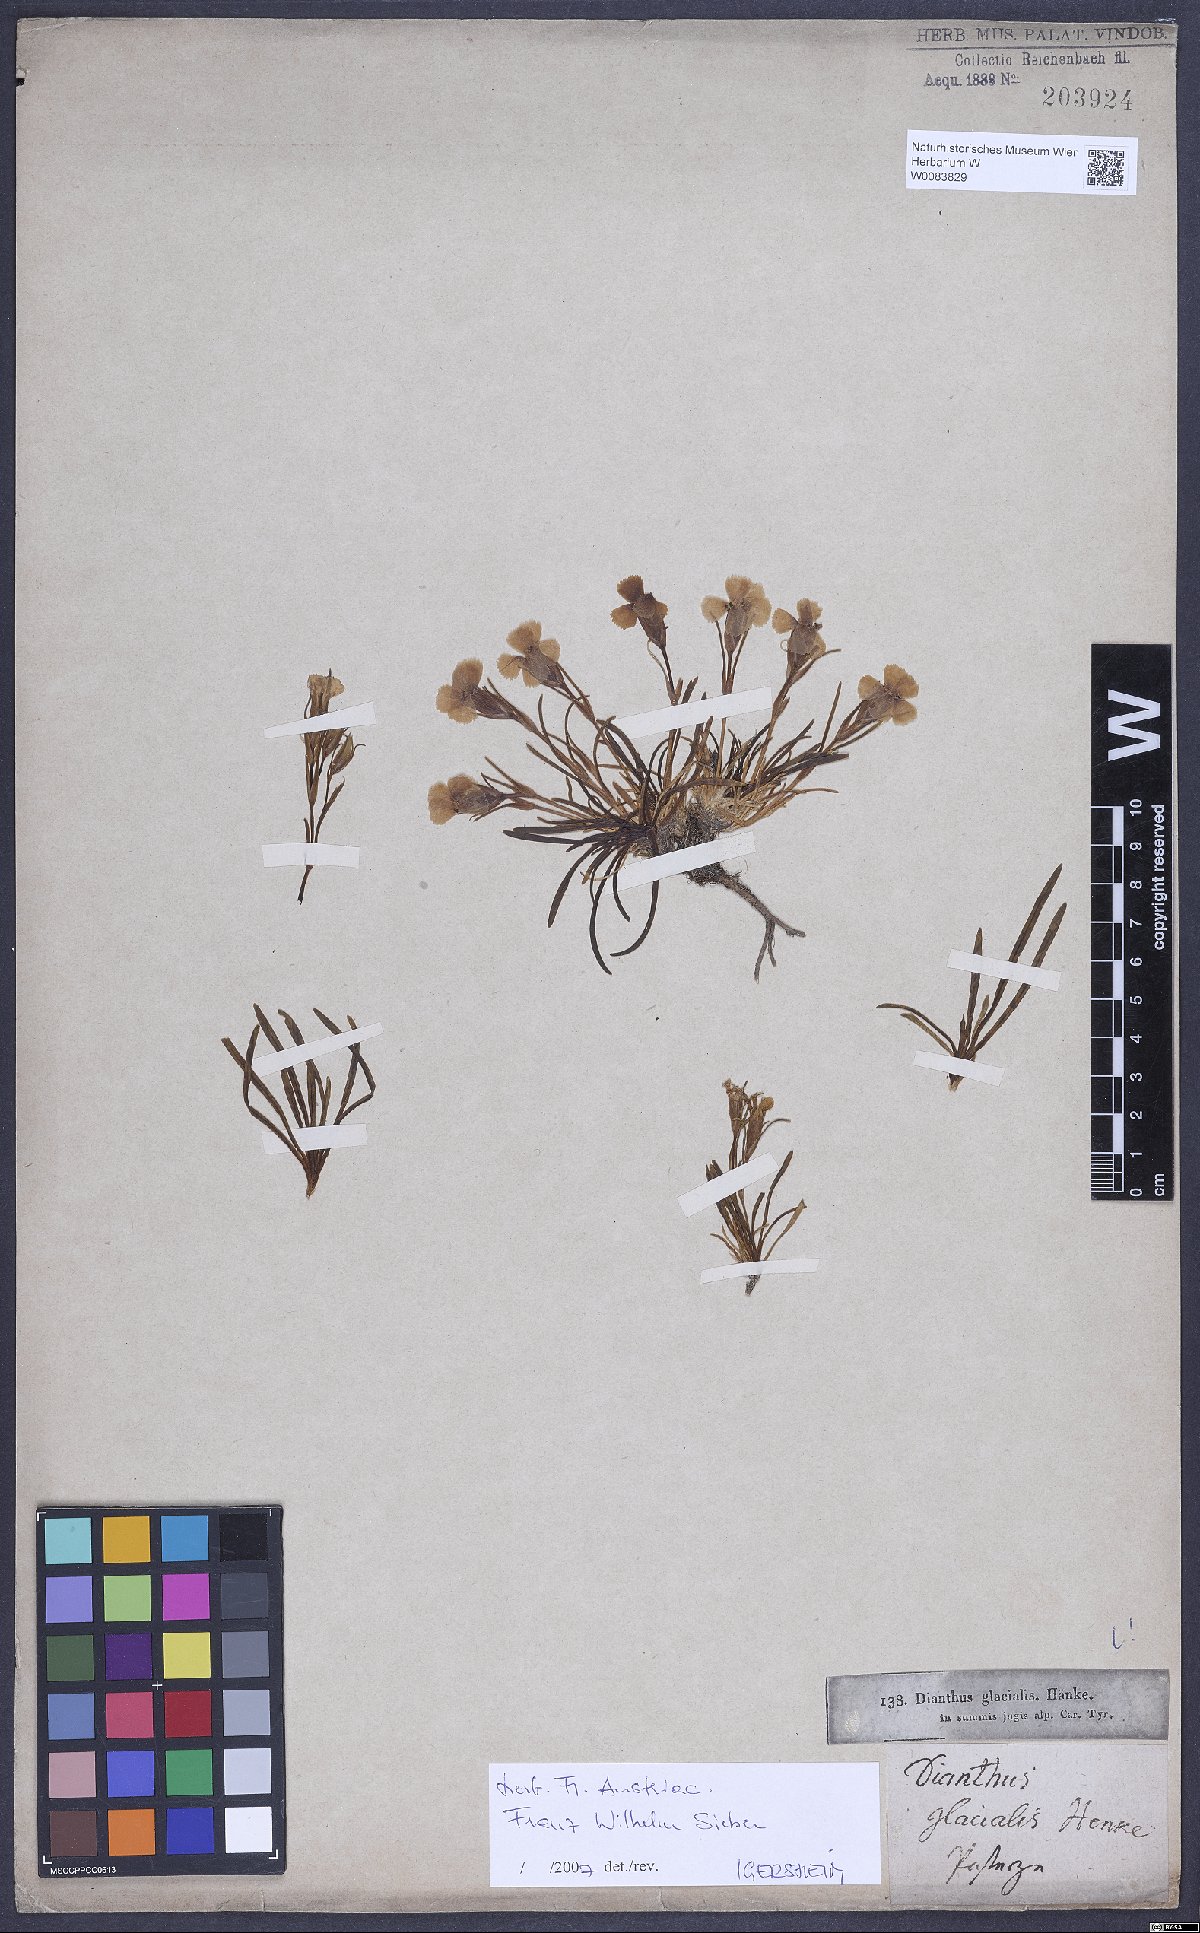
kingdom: Plantae
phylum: Tracheophyta
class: Magnoliopsida
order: Caryophyllales
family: Caryophyllaceae
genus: Dianthus
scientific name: Dianthus glacialis
